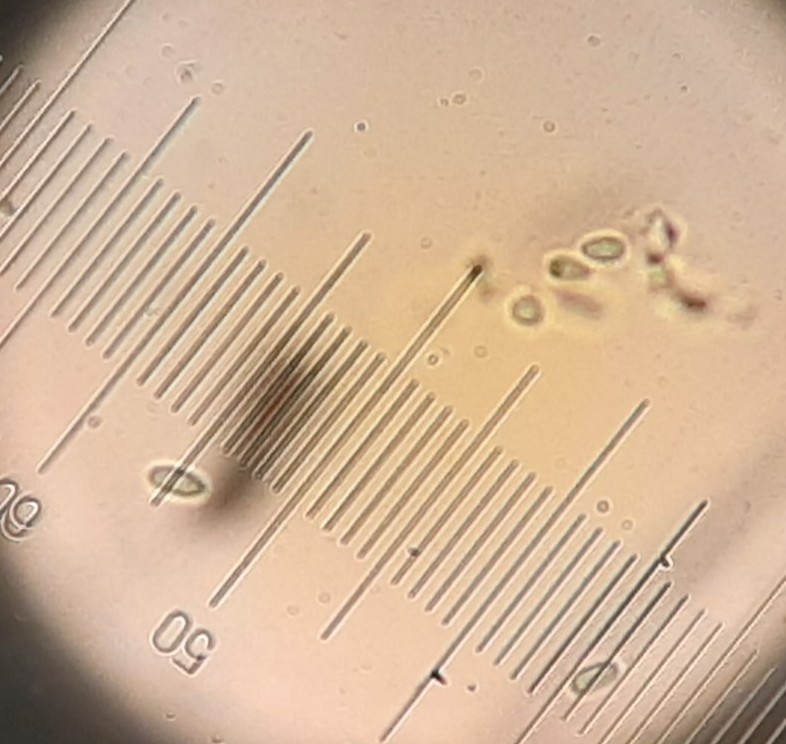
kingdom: Fungi
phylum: Ascomycota
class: Dothideomycetes
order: Pleosporales
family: Didymellaceae
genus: Boeremia
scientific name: Boeremia hedericola
